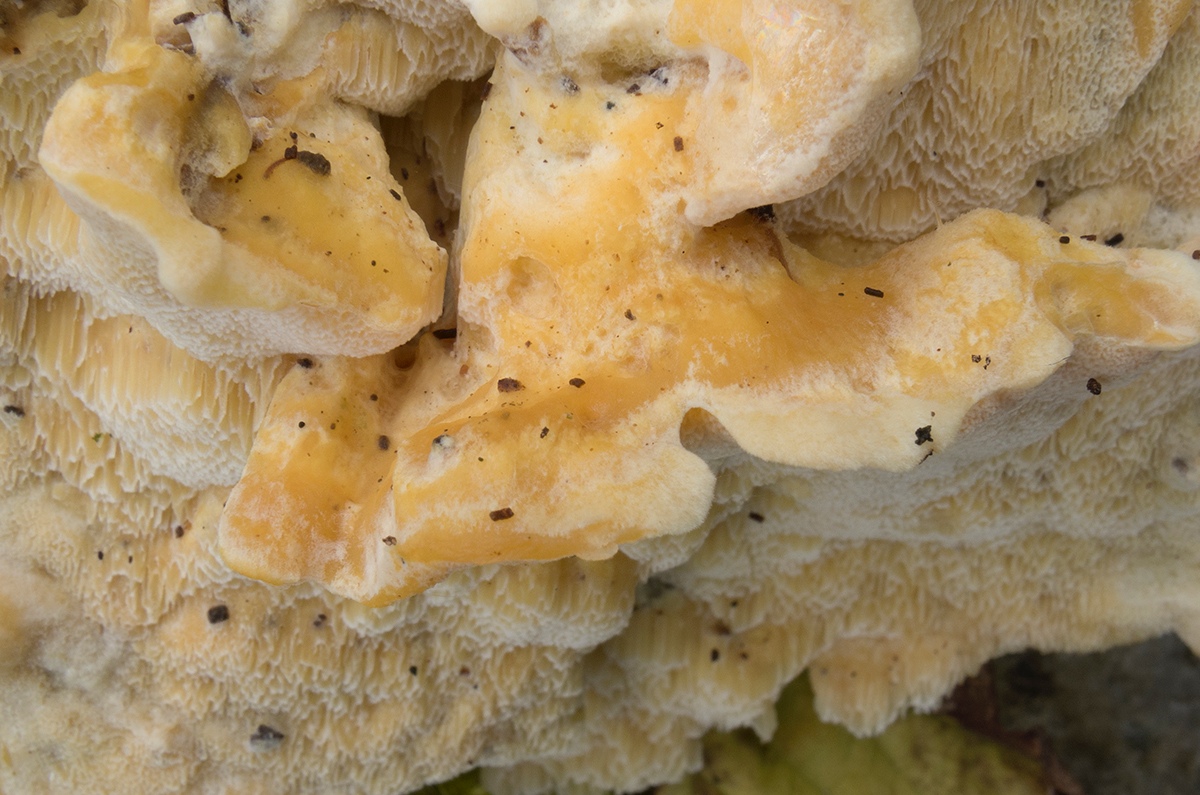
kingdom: Fungi
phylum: Basidiomycota
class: Agaricomycetes
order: Polyporales
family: Steccherinaceae
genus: Antrodiella
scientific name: Antrodiella mentschulensis
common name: abrikosporesvamp
